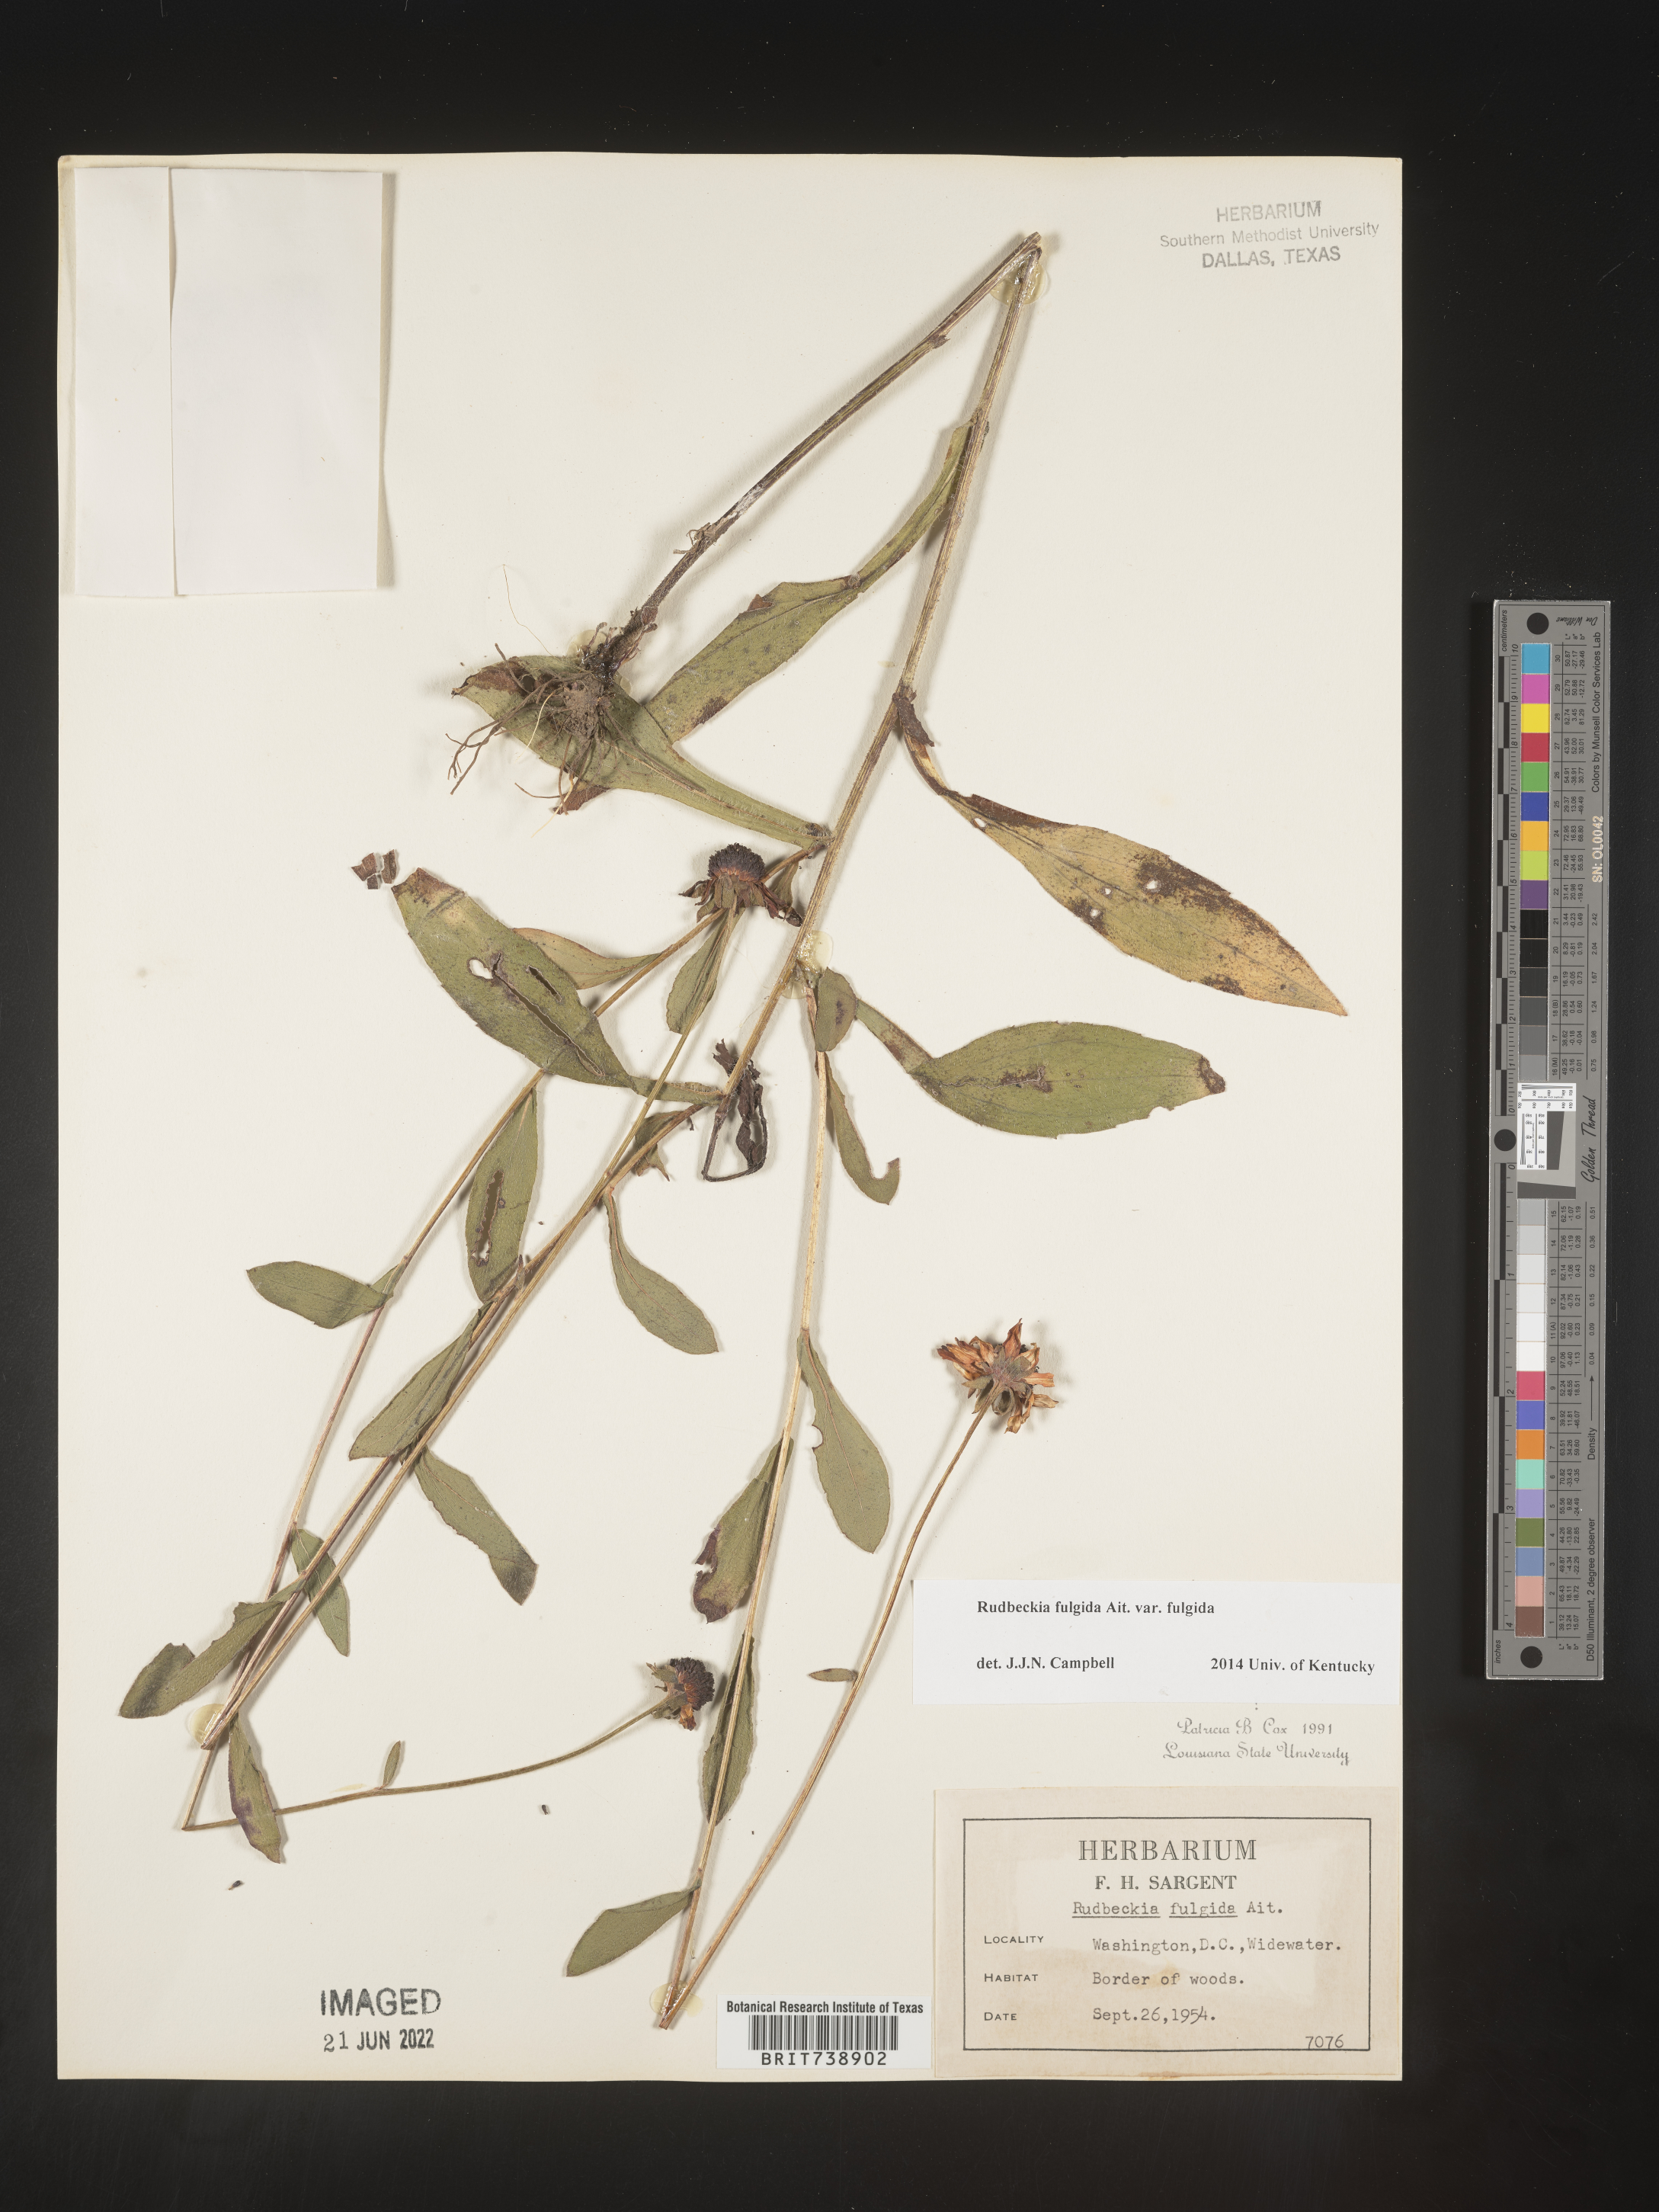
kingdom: Plantae
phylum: Tracheophyta
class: Magnoliopsida
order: Asterales
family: Asteraceae
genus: Rudbeckia
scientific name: Rudbeckia fulgida
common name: Perennial coneflower
